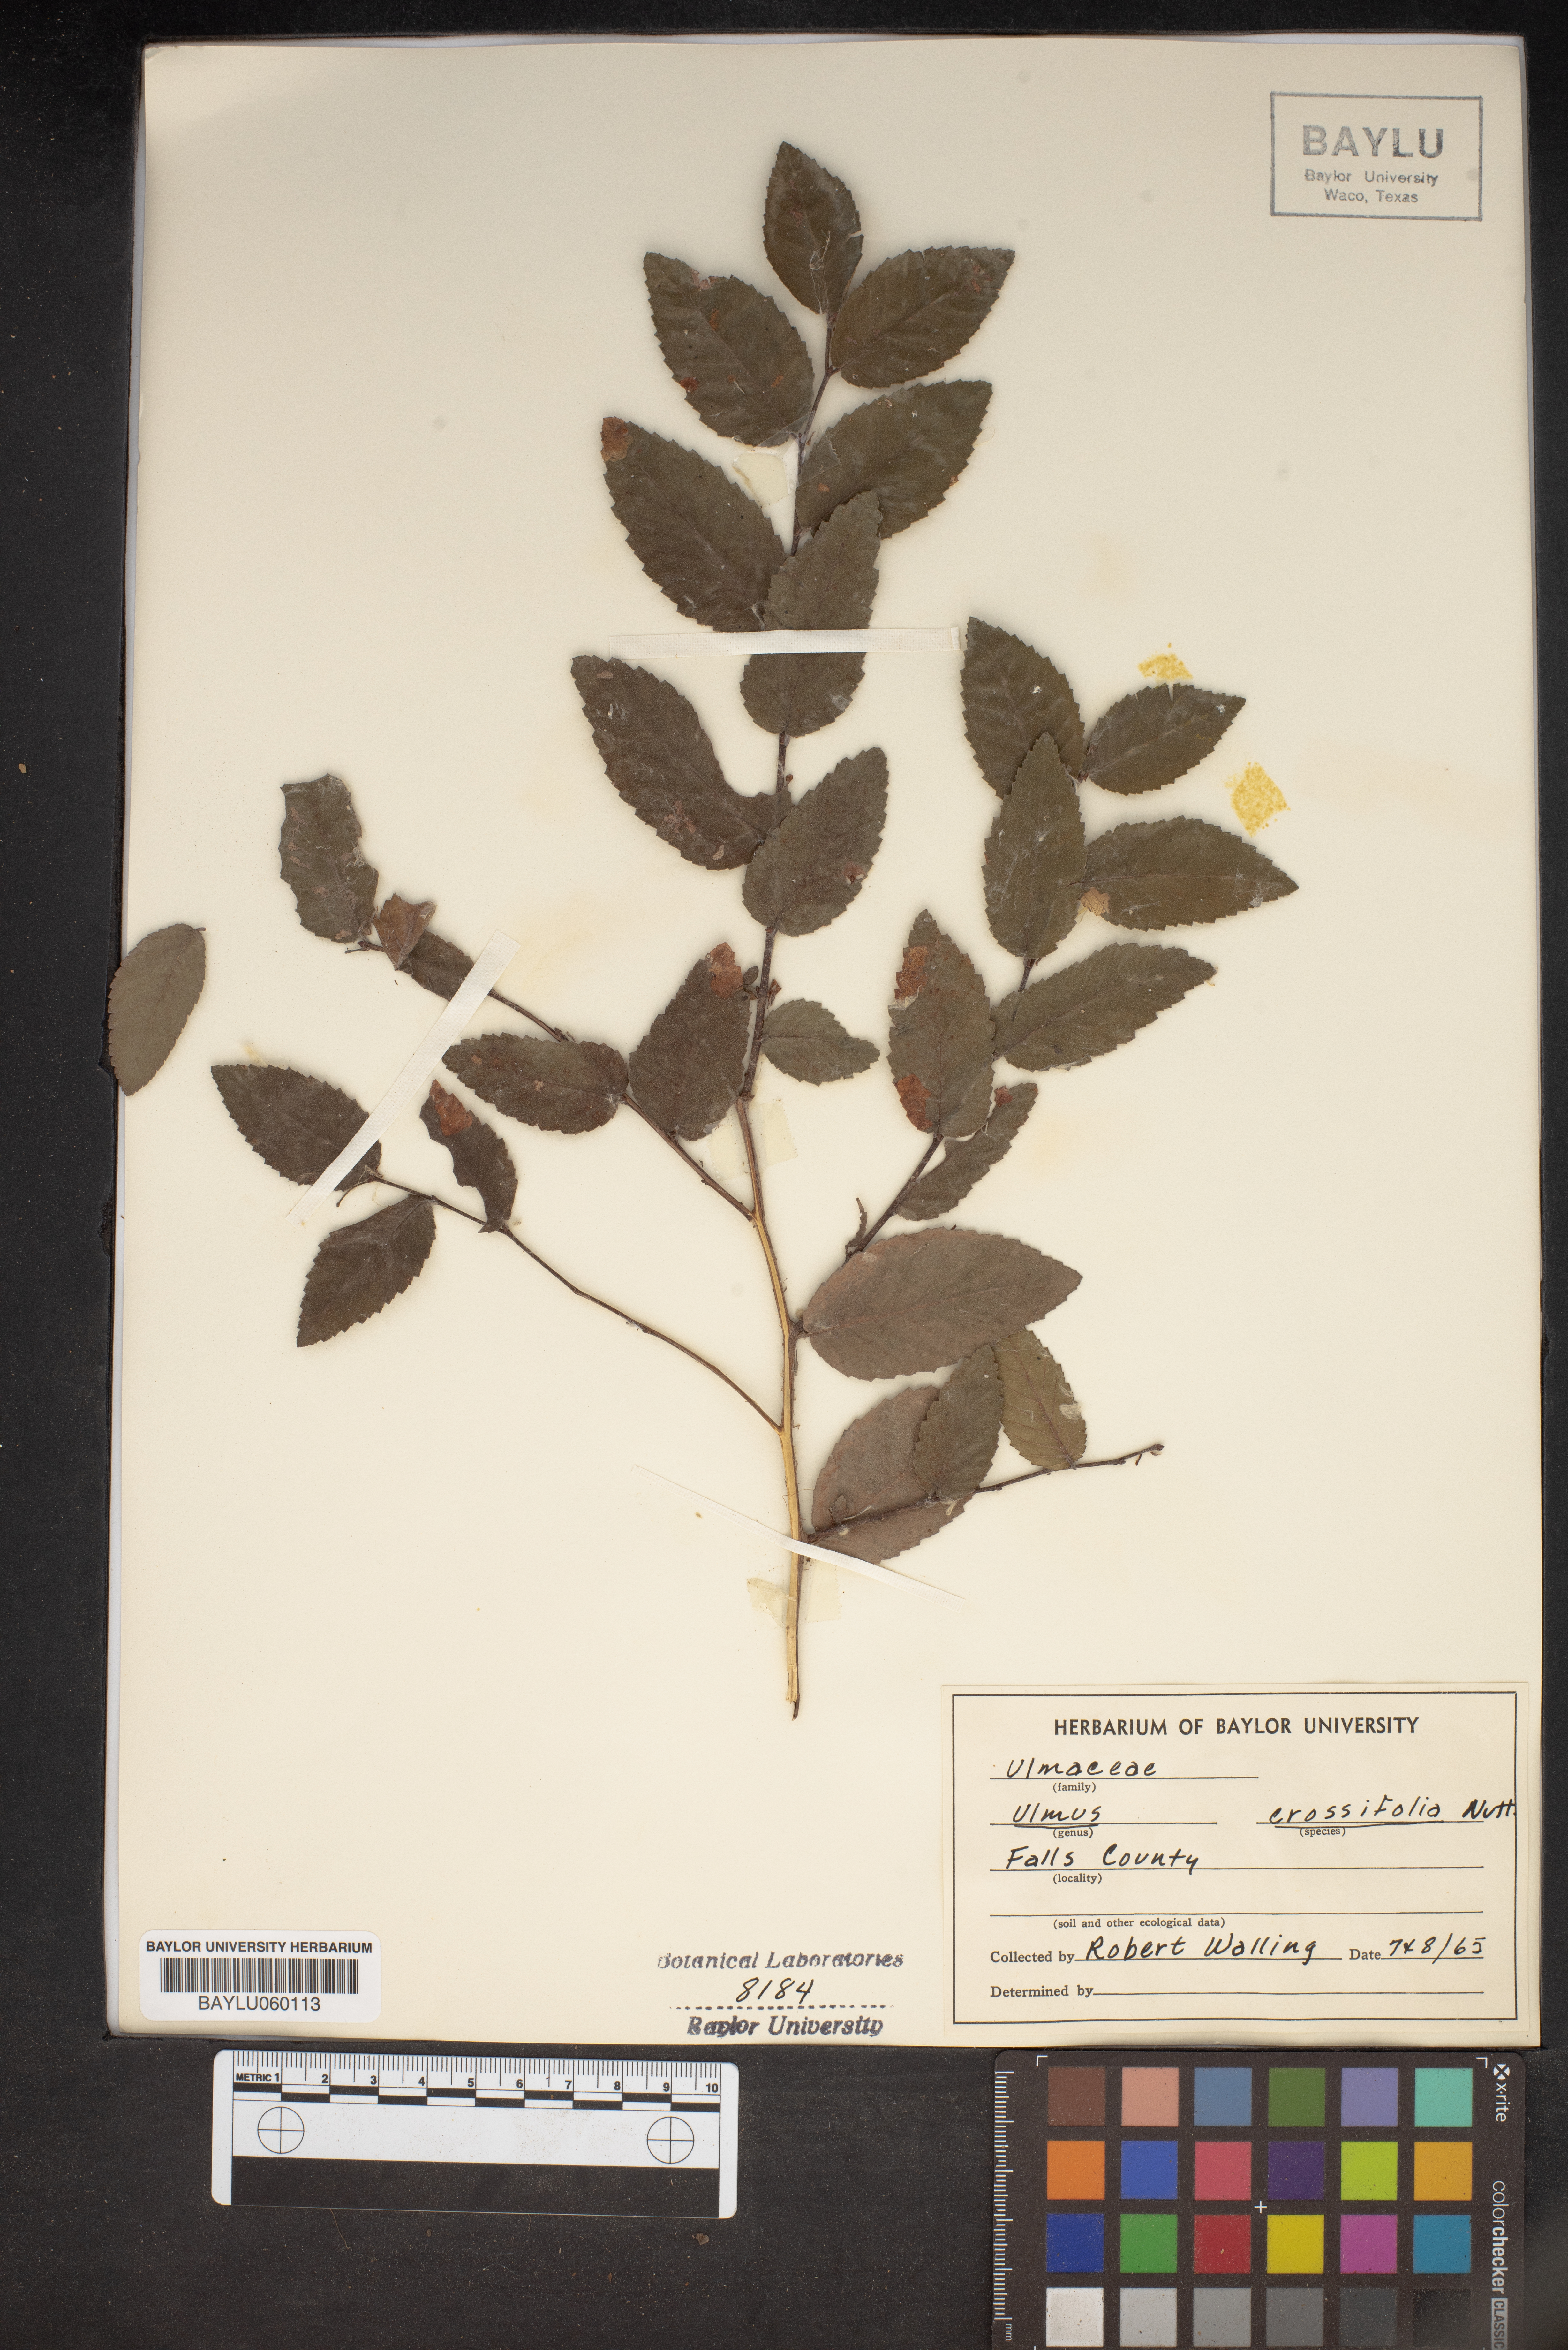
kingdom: Plantae
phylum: Tracheophyta
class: Magnoliopsida
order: Rosales
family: Ulmaceae
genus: Ulmus
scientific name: Ulmus crassifolia
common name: Basket elm
